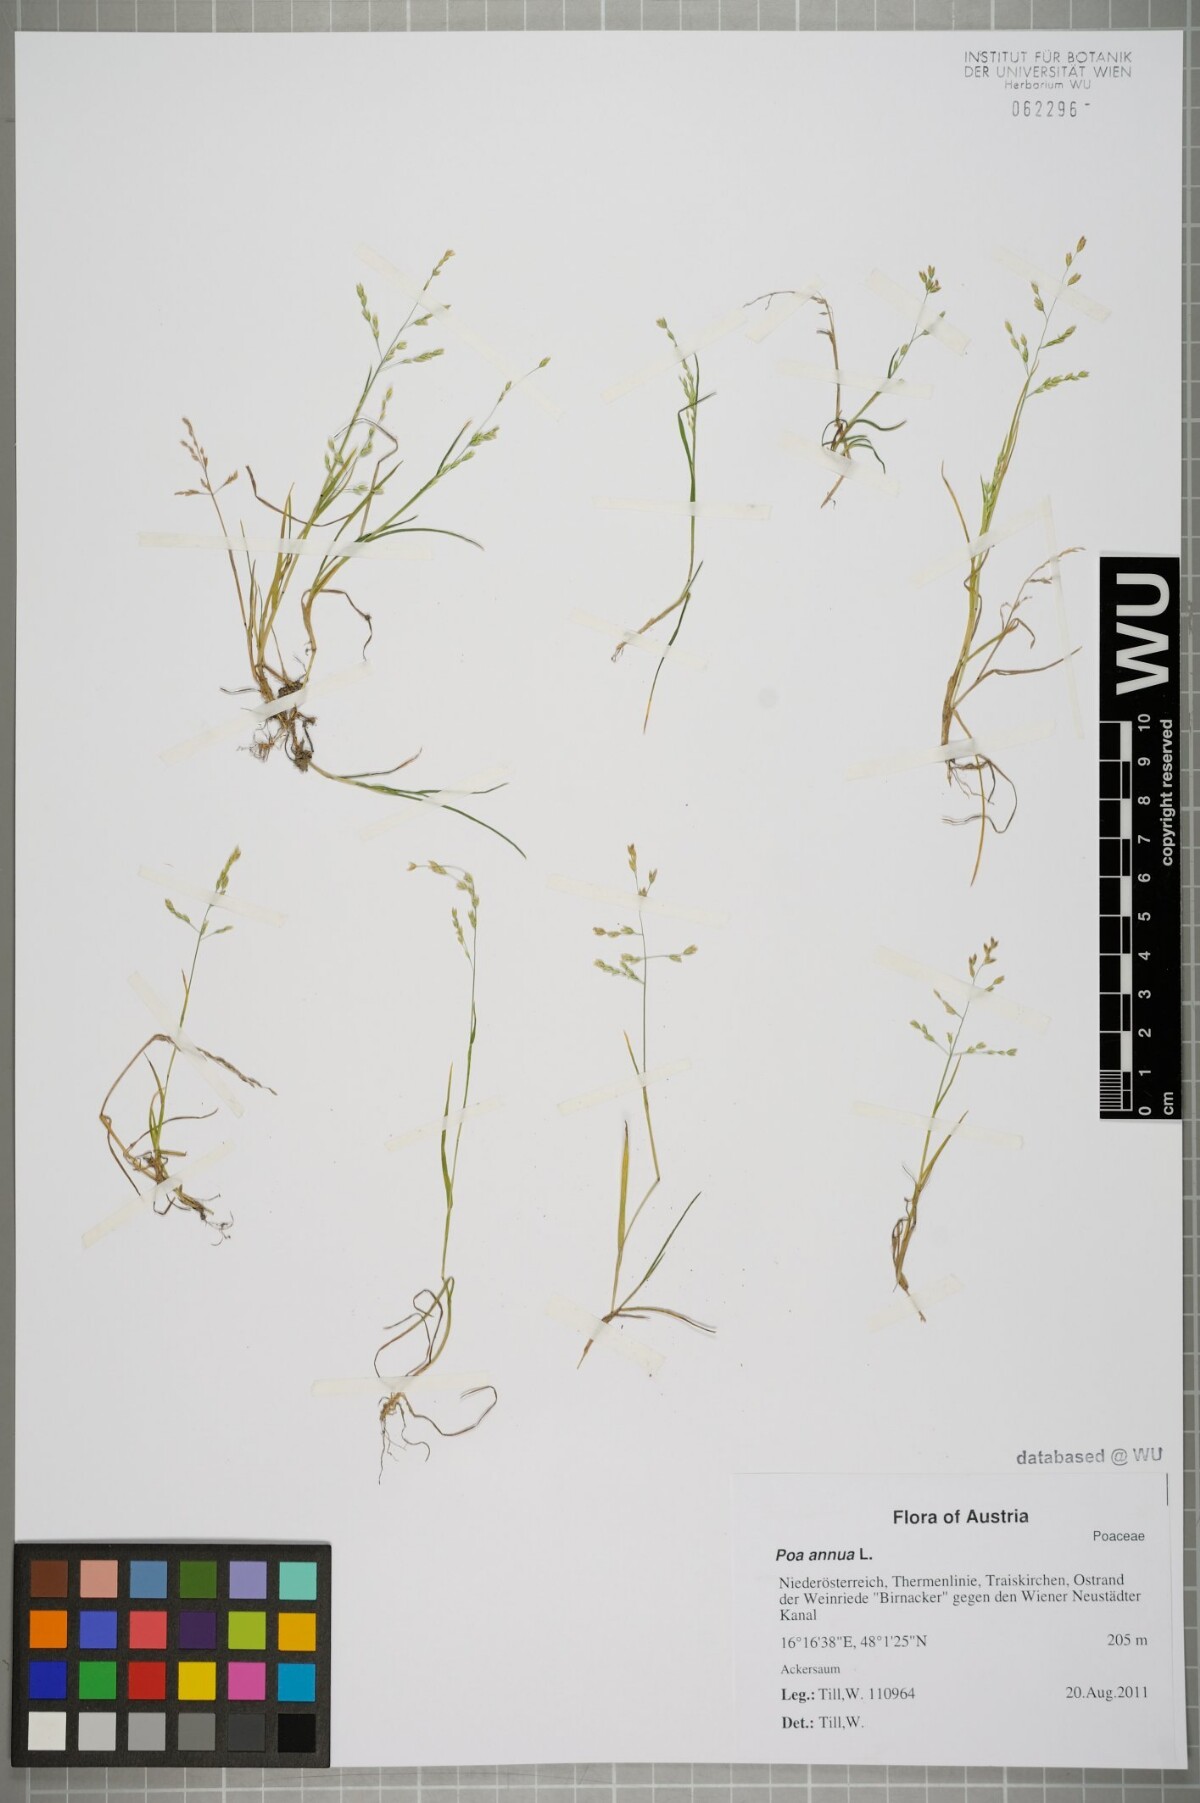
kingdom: Plantae
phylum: Tracheophyta
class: Liliopsida
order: Poales
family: Poaceae
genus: Poa
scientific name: Poa annua
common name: Annual bluegrass
